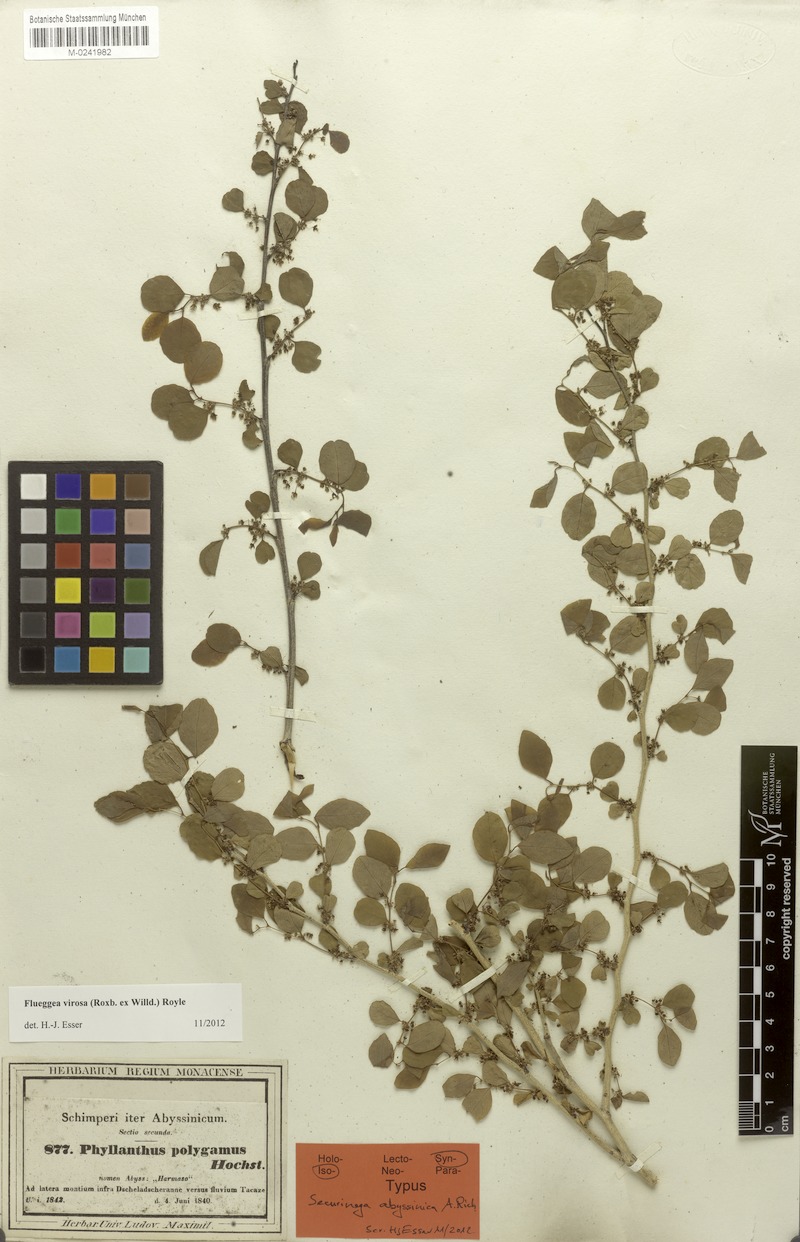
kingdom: Plantae
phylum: Tracheophyta
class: Magnoliopsida
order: Malpighiales
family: Phyllanthaceae
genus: Flueggea
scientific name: Flueggea virosa
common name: Common bushweed
